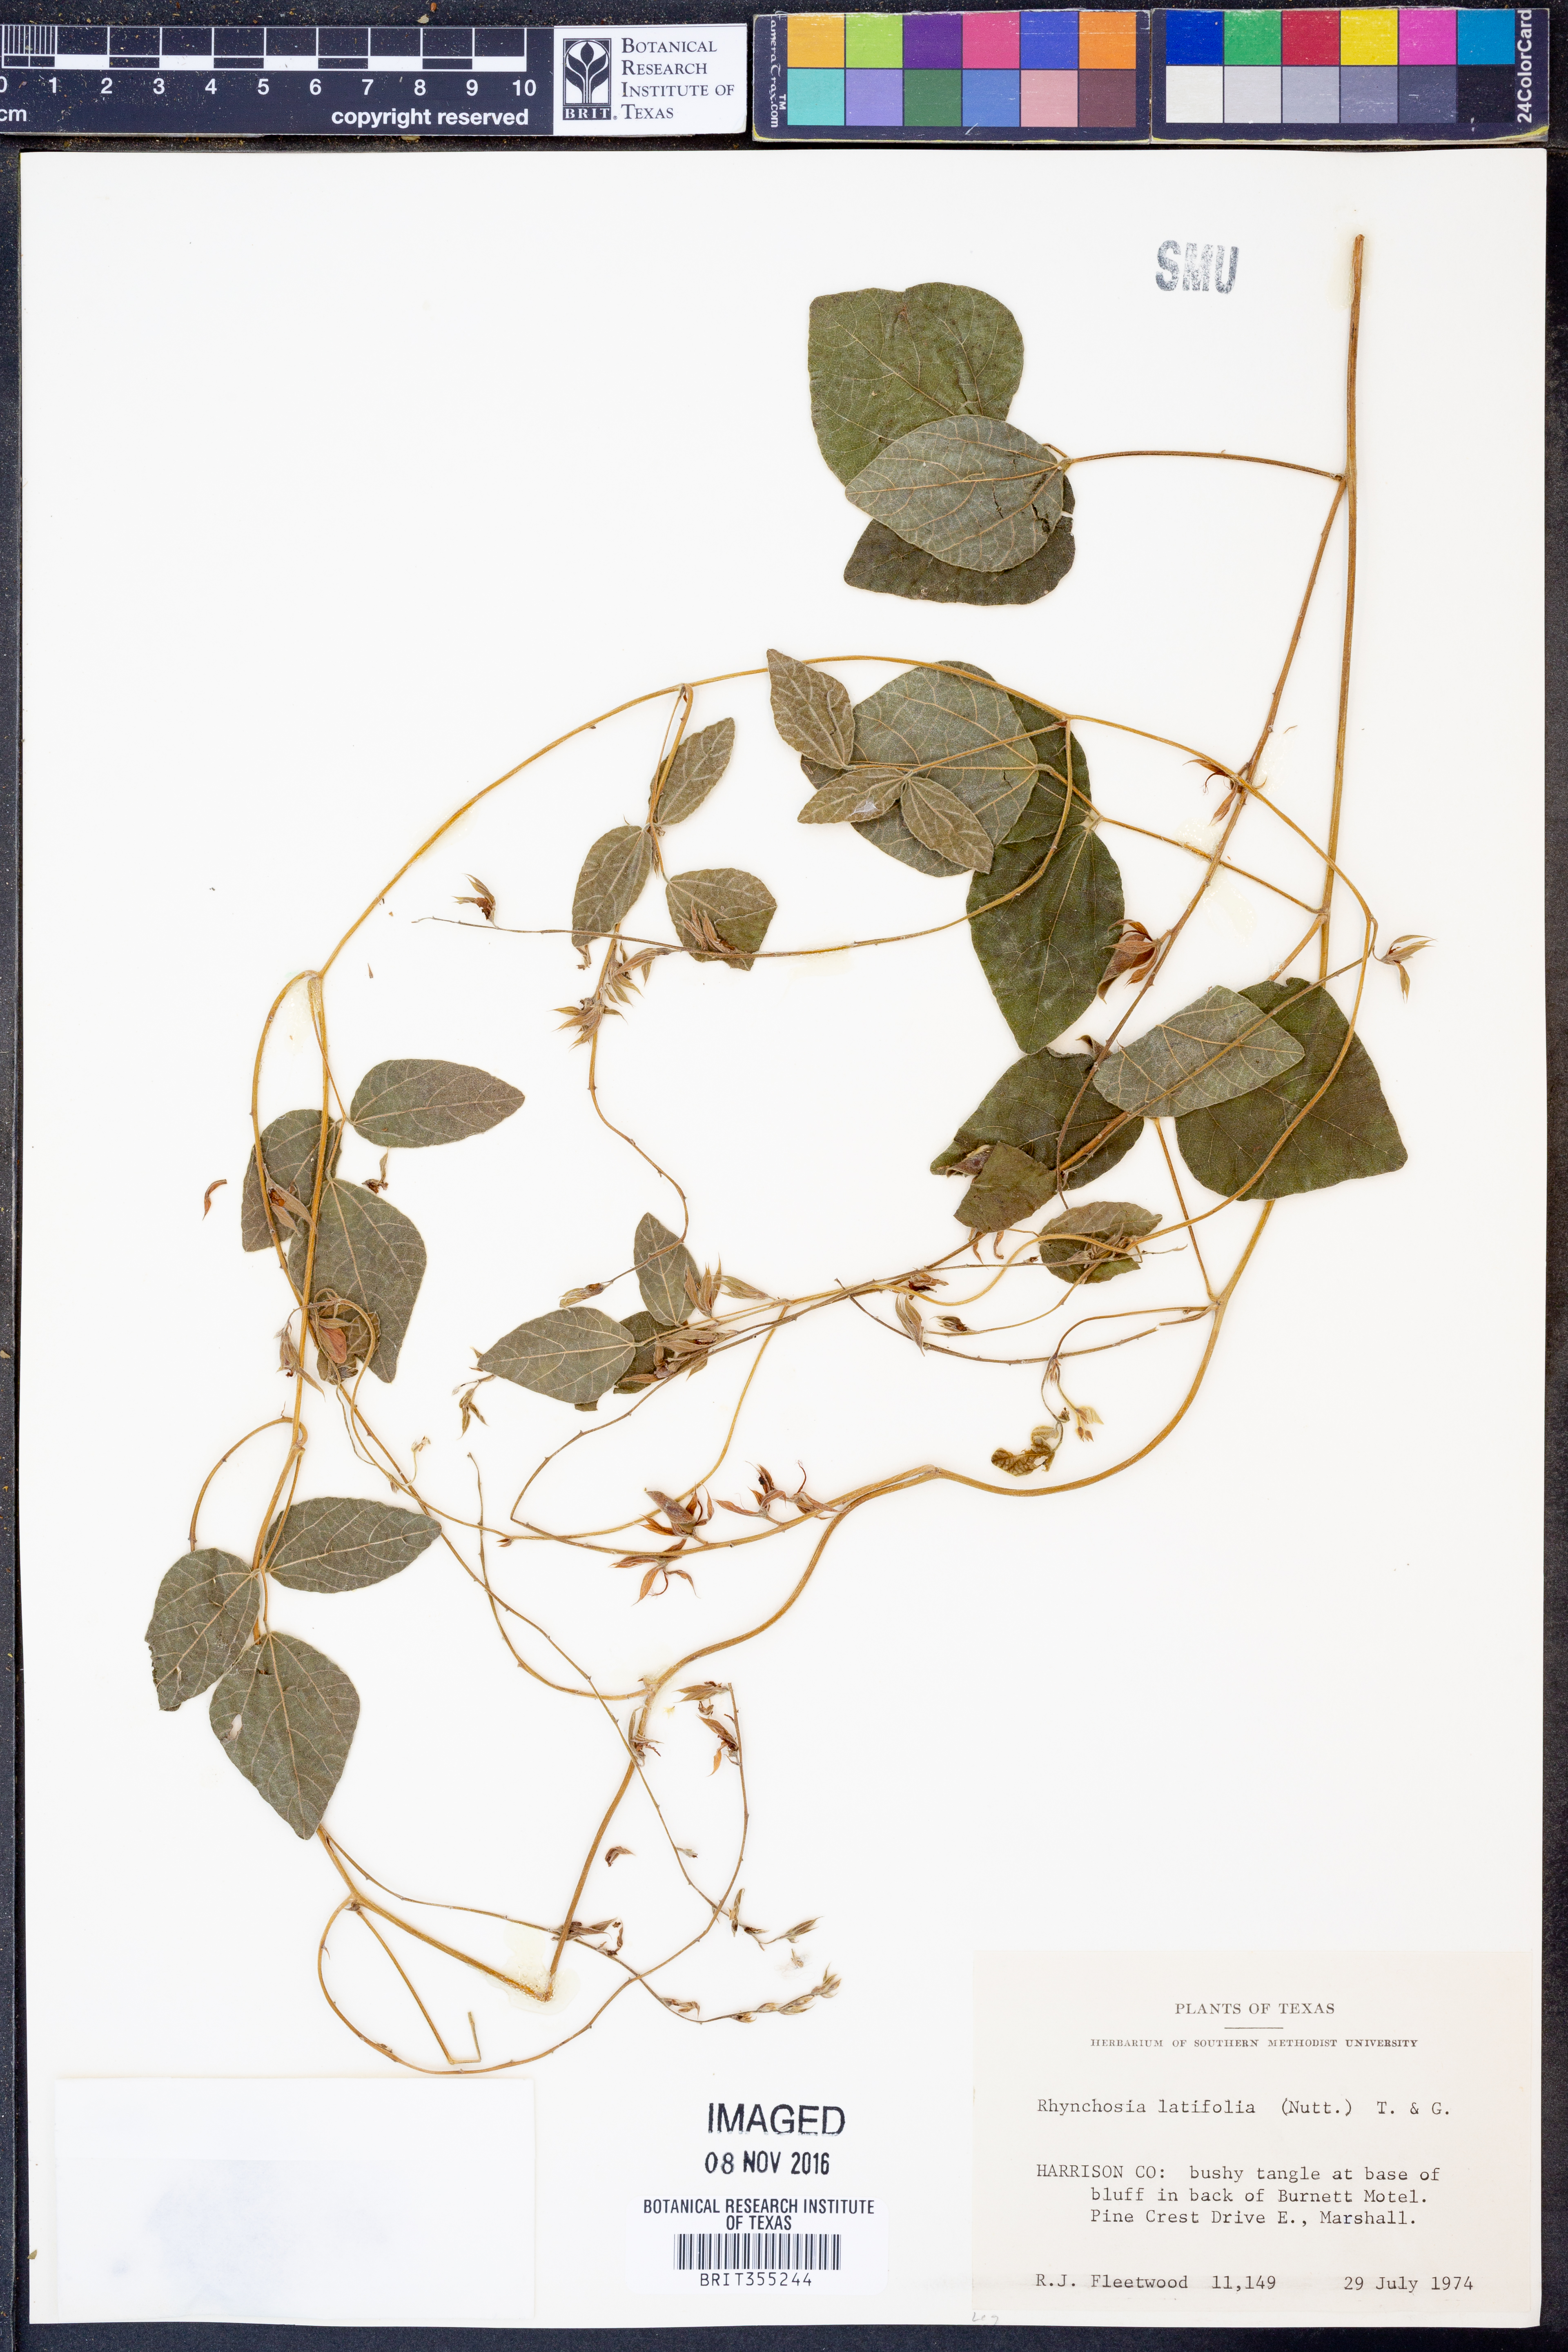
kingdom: Plantae
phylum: Tracheophyta
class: Magnoliopsida
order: Fabales
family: Fabaceae
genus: Rhynchosia
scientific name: Rhynchosia latifolia
